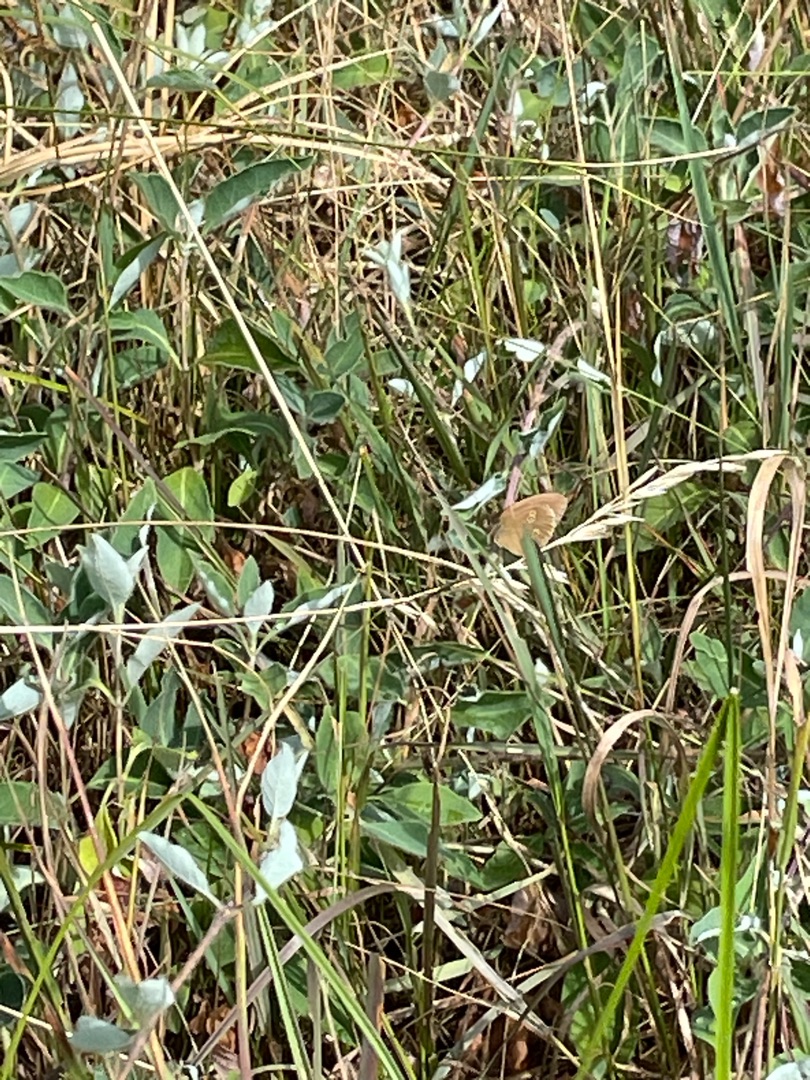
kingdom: Animalia
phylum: Arthropoda
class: Insecta
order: Lepidoptera
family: Nymphalidae
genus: Aphantopus
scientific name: Aphantopus hyperantus
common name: Engrandøje
